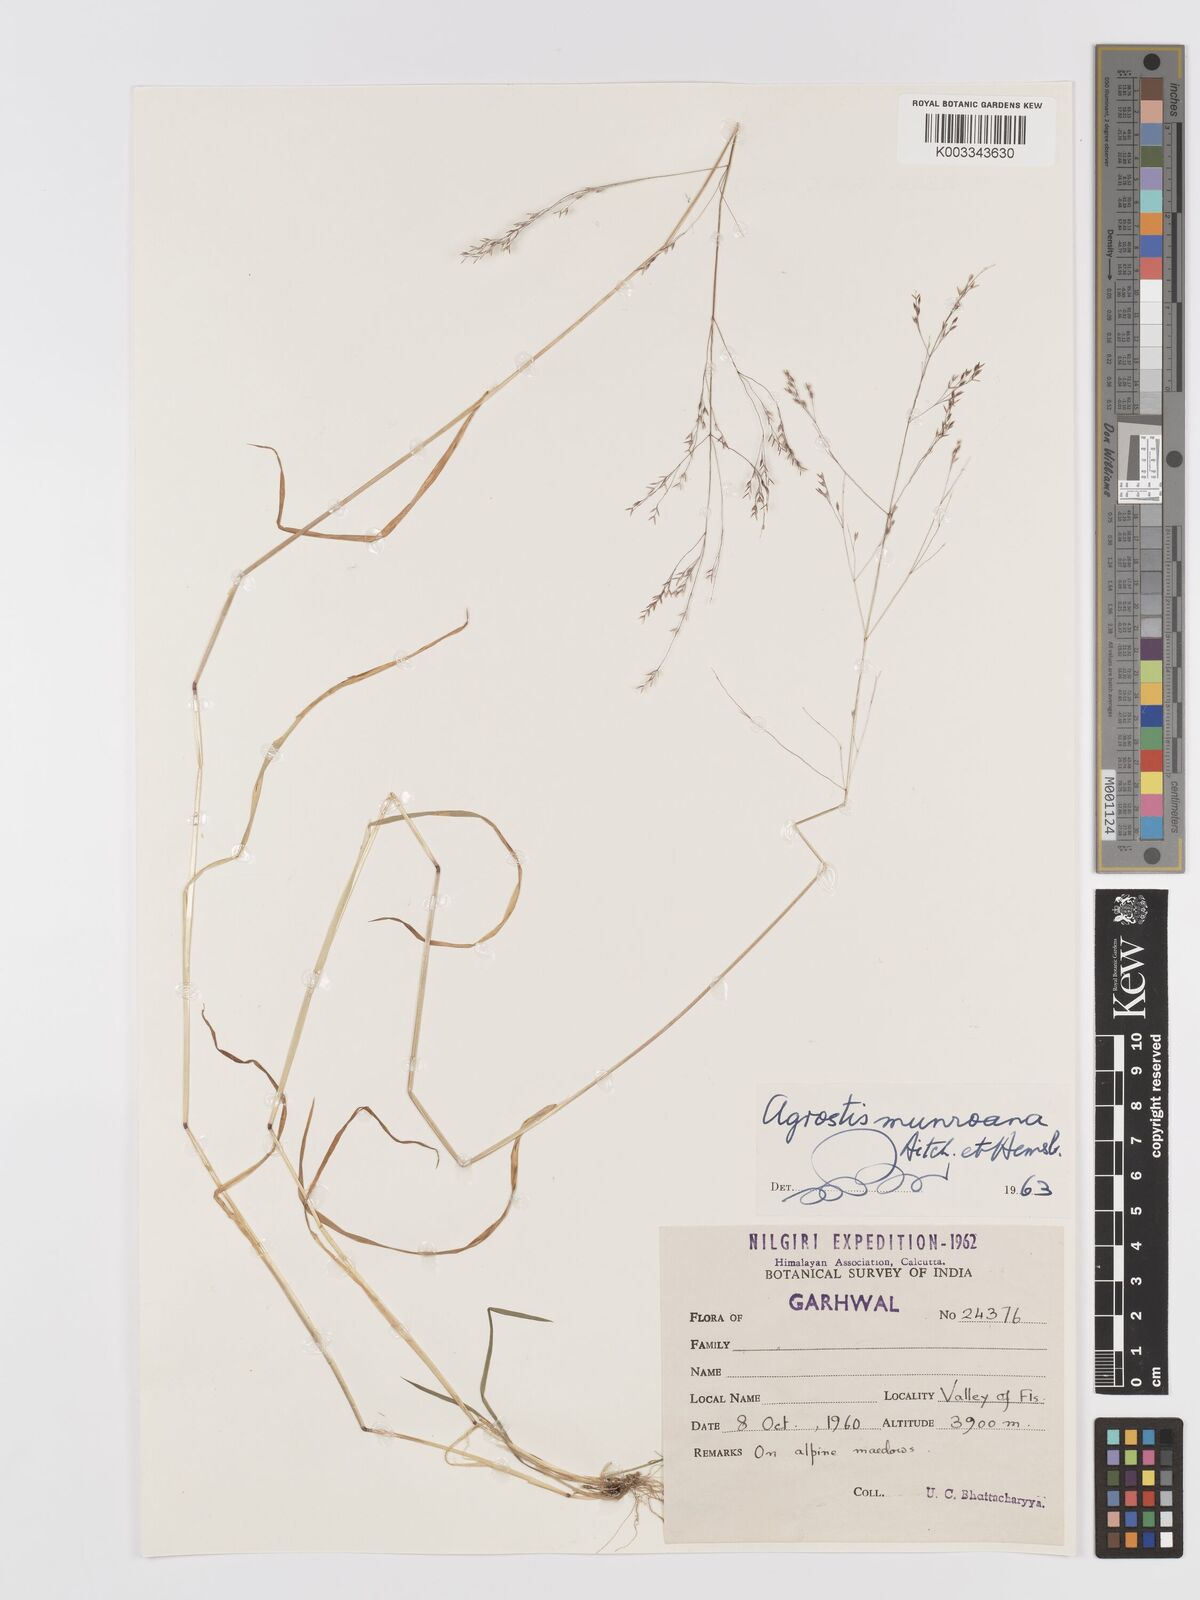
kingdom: Plantae
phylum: Tracheophyta
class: Liliopsida
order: Poales
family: Poaceae
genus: Agrostis
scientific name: Agrostis munroana
